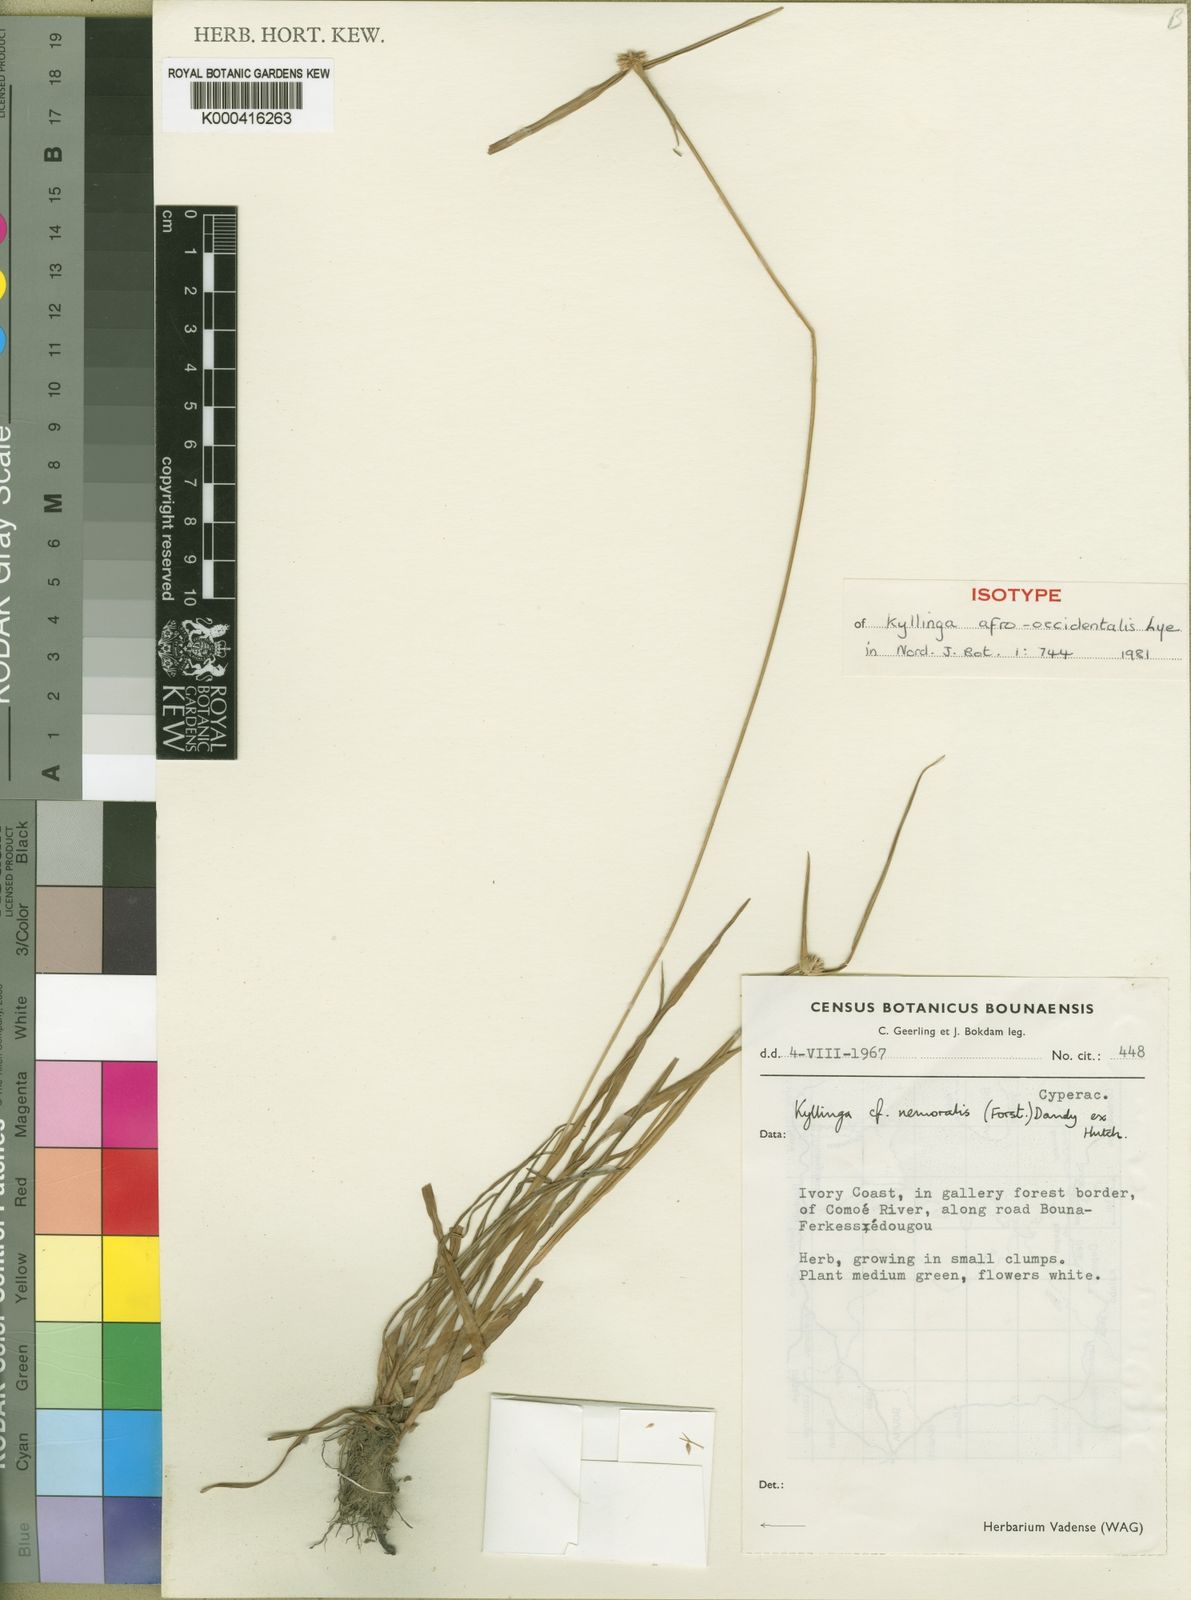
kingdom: Plantae
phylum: Tracheophyta
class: Liliopsida
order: Poales
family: Cyperaceae
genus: Cyperus
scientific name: Cyperus afro-occidentalis
